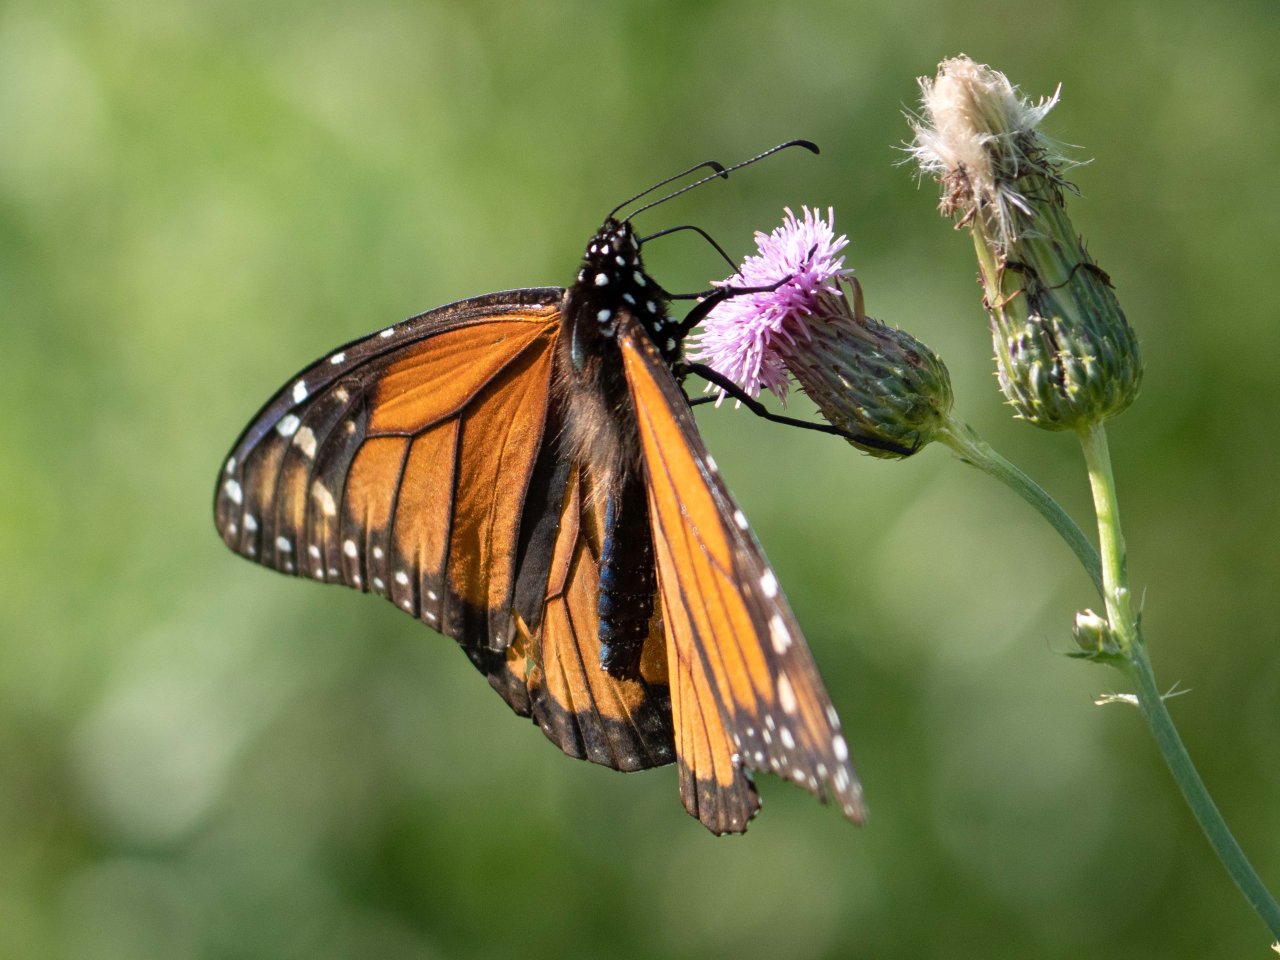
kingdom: Animalia
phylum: Arthropoda
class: Insecta
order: Lepidoptera
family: Nymphalidae
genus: Danaus
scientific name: Danaus plexippus
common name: Monarch
